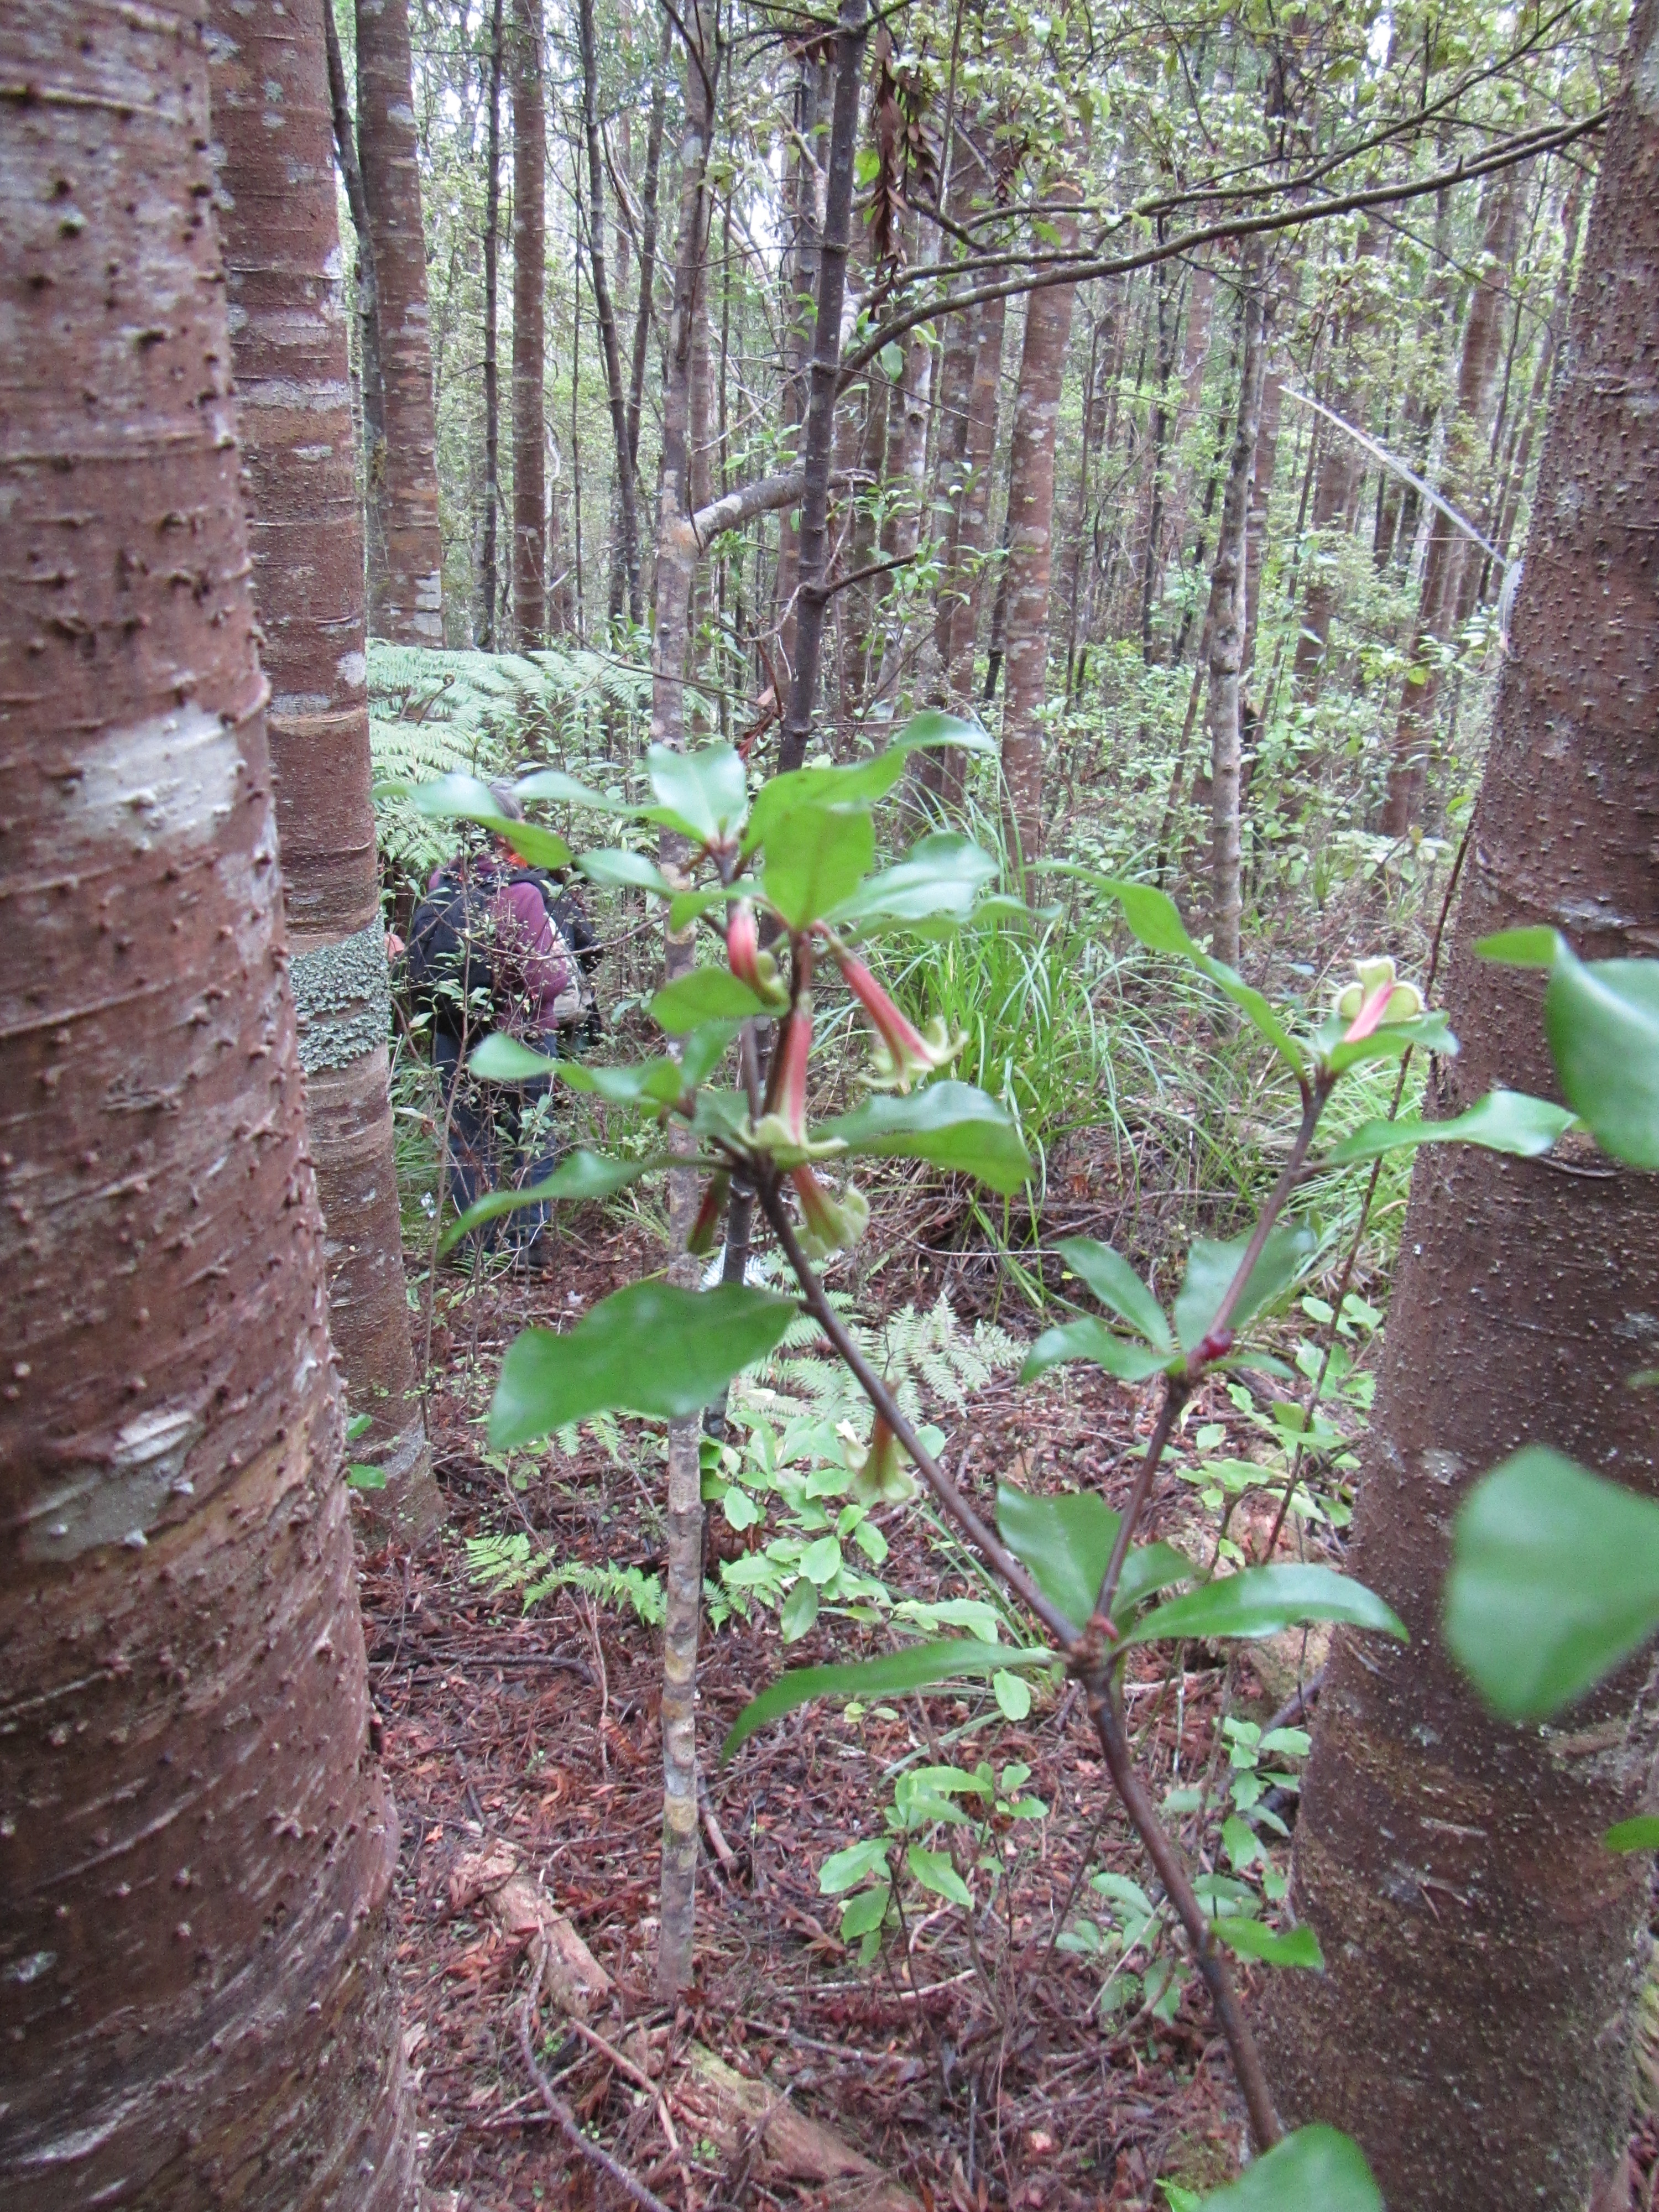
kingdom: Plantae
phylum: Tracheophyta
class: Magnoliopsida
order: Asterales
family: Alseuosmiaceae
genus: Alseuosmia
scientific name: Alseuosmia quercifolia
